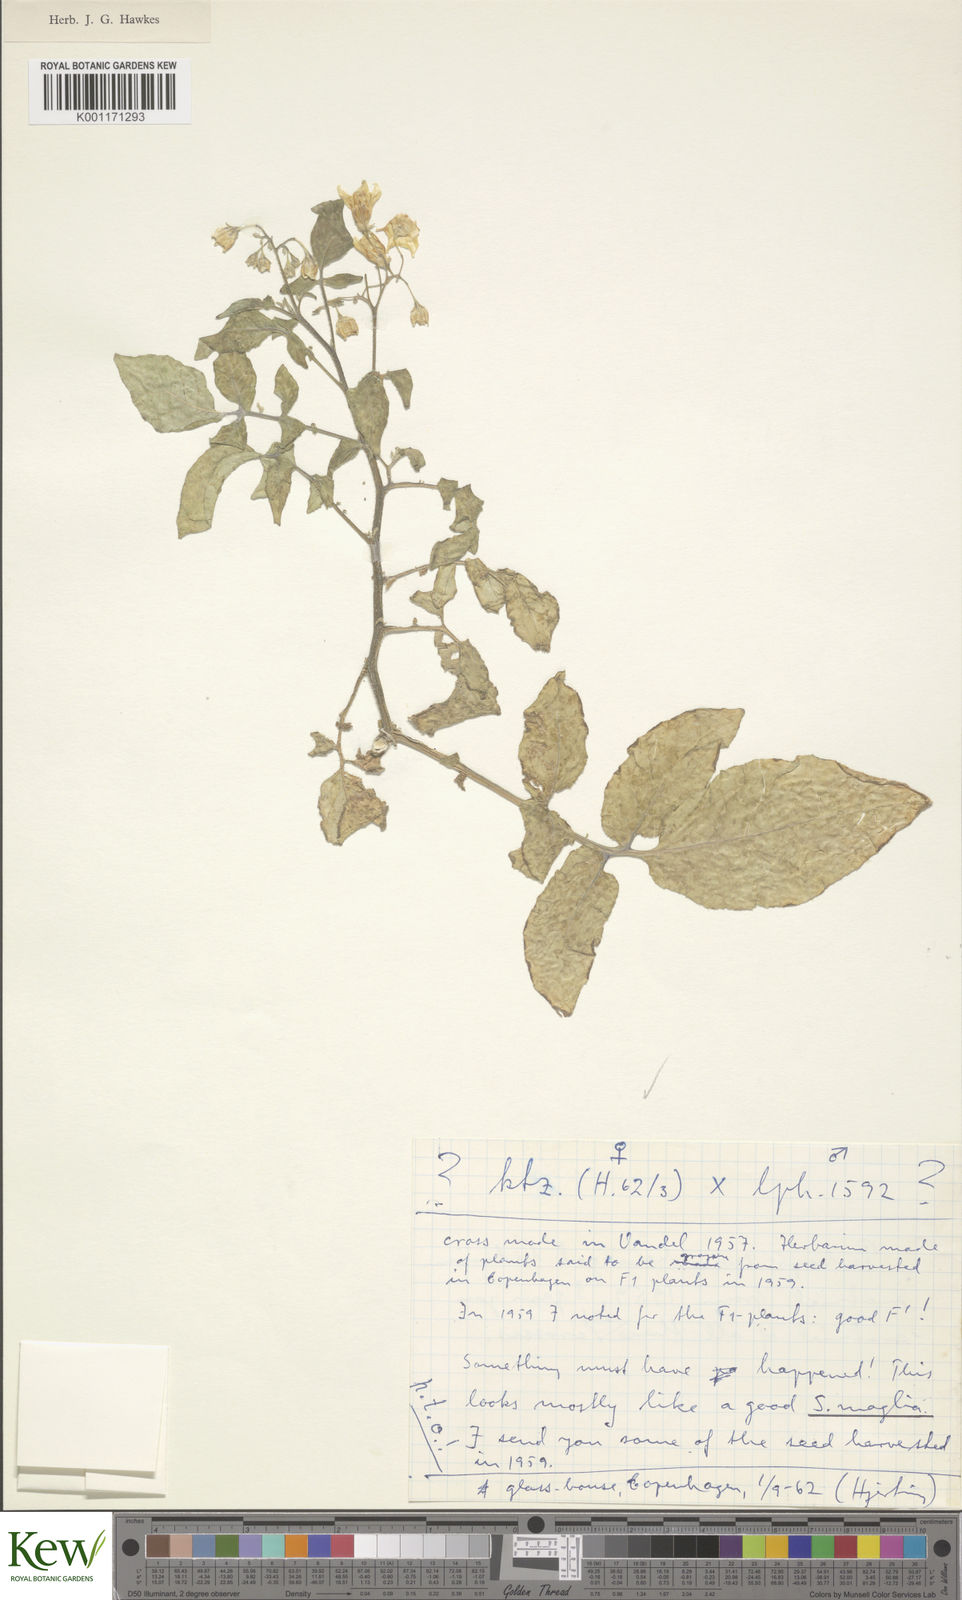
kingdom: Plantae
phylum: Tracheophyta
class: Magnoliopsida
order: Solanales
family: Solanaceae
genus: Solanum
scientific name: Solanum kurtzianum
